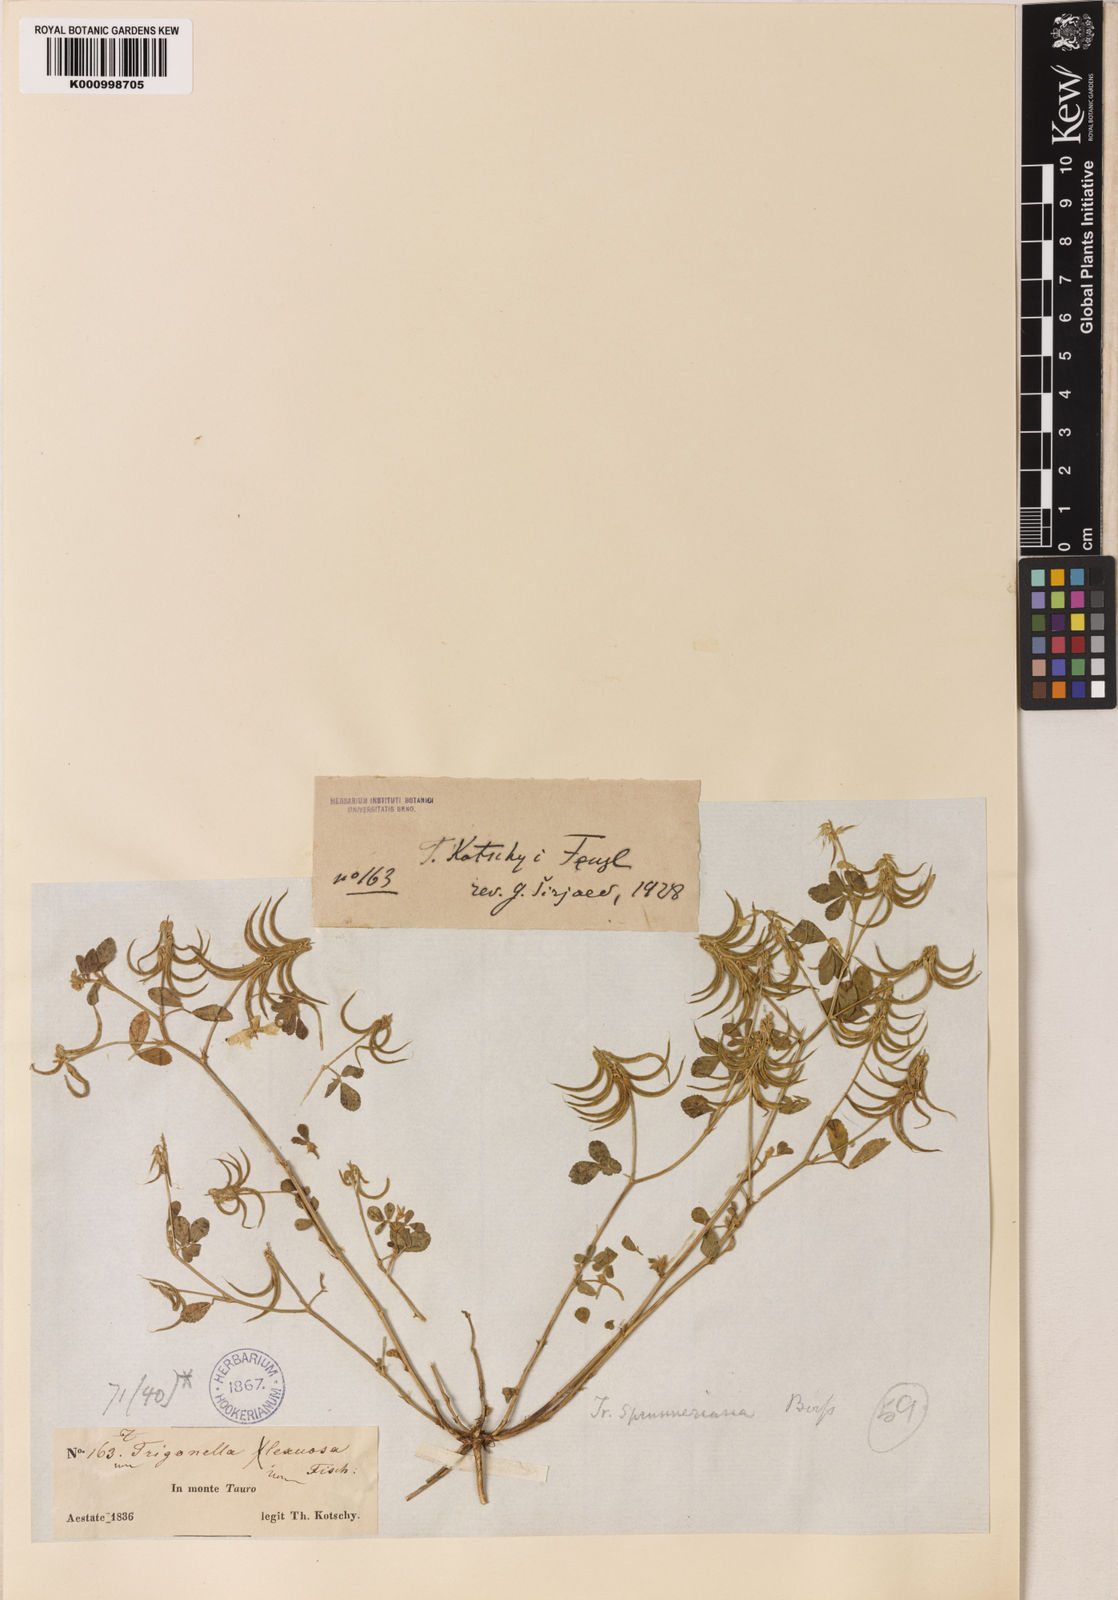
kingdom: Plantae
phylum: Tracheophyta
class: Magnoliopsida
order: Fabales
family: Fabaceae
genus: Trigonella
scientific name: Trigonella kotschyi
